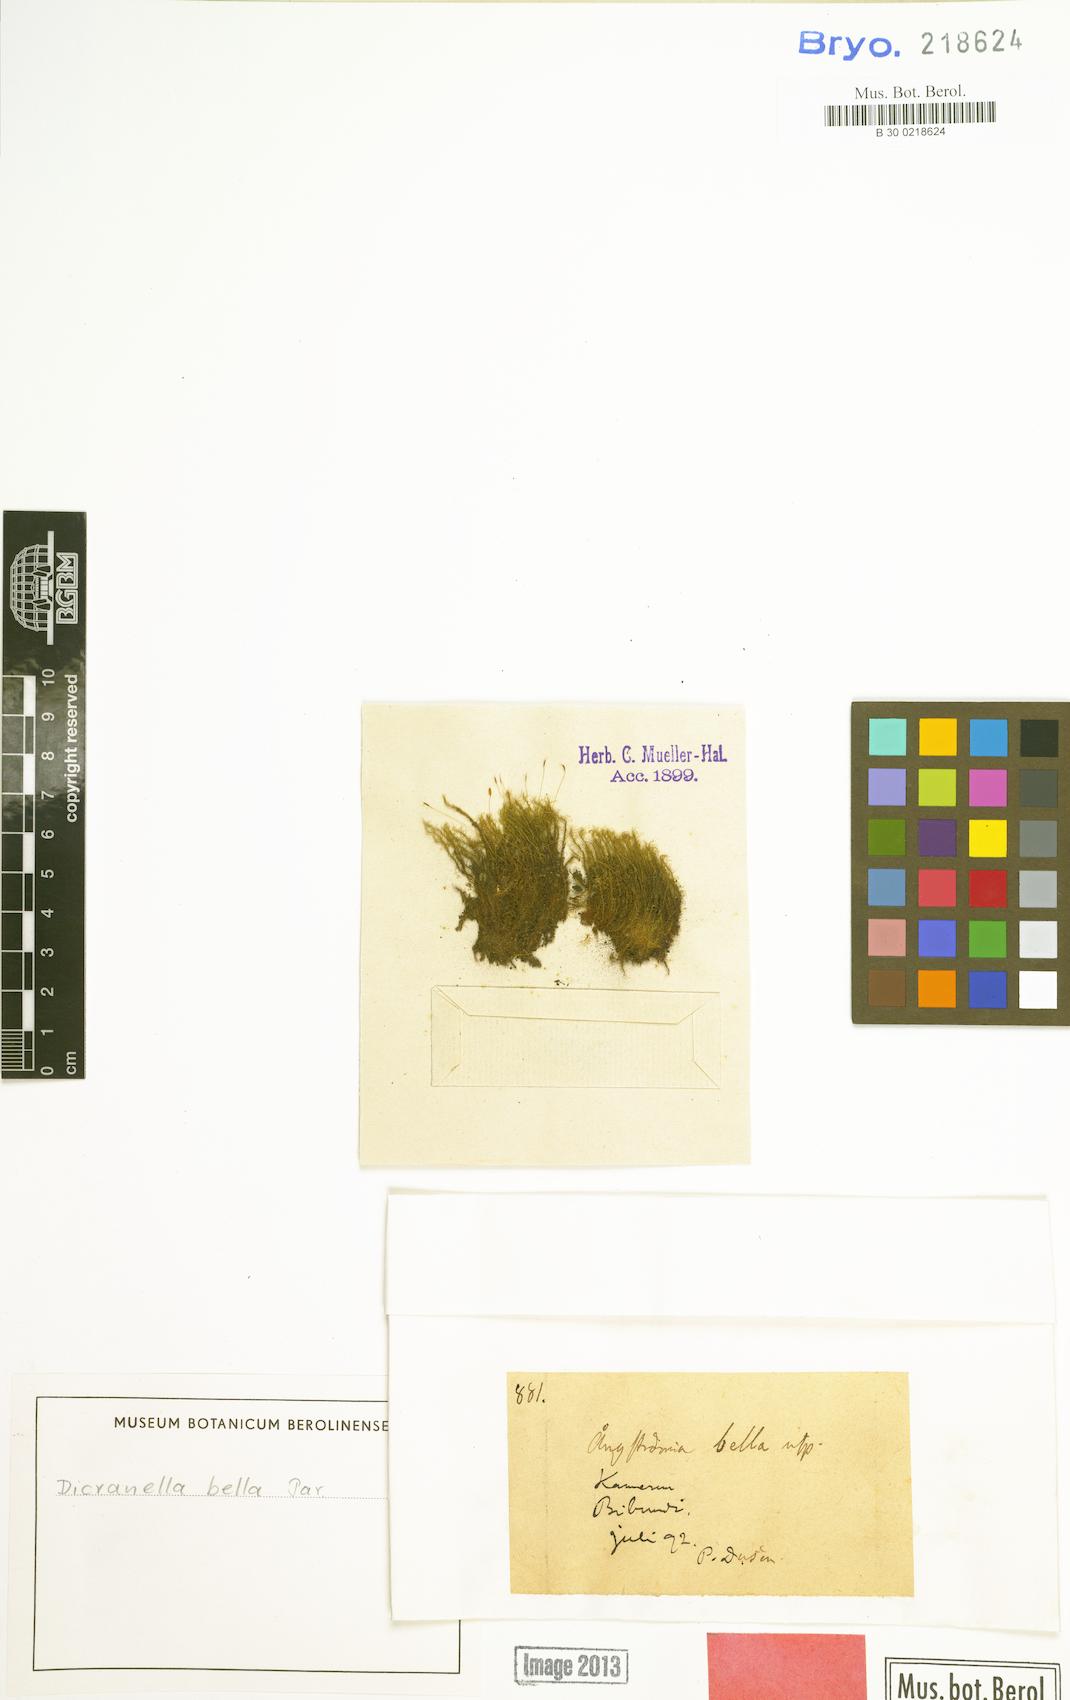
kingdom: Plantae
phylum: Bryophyta
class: Bryopsida
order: Dicranales
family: Dicranellaceae
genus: Dicranella
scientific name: Dicranella gracillima
